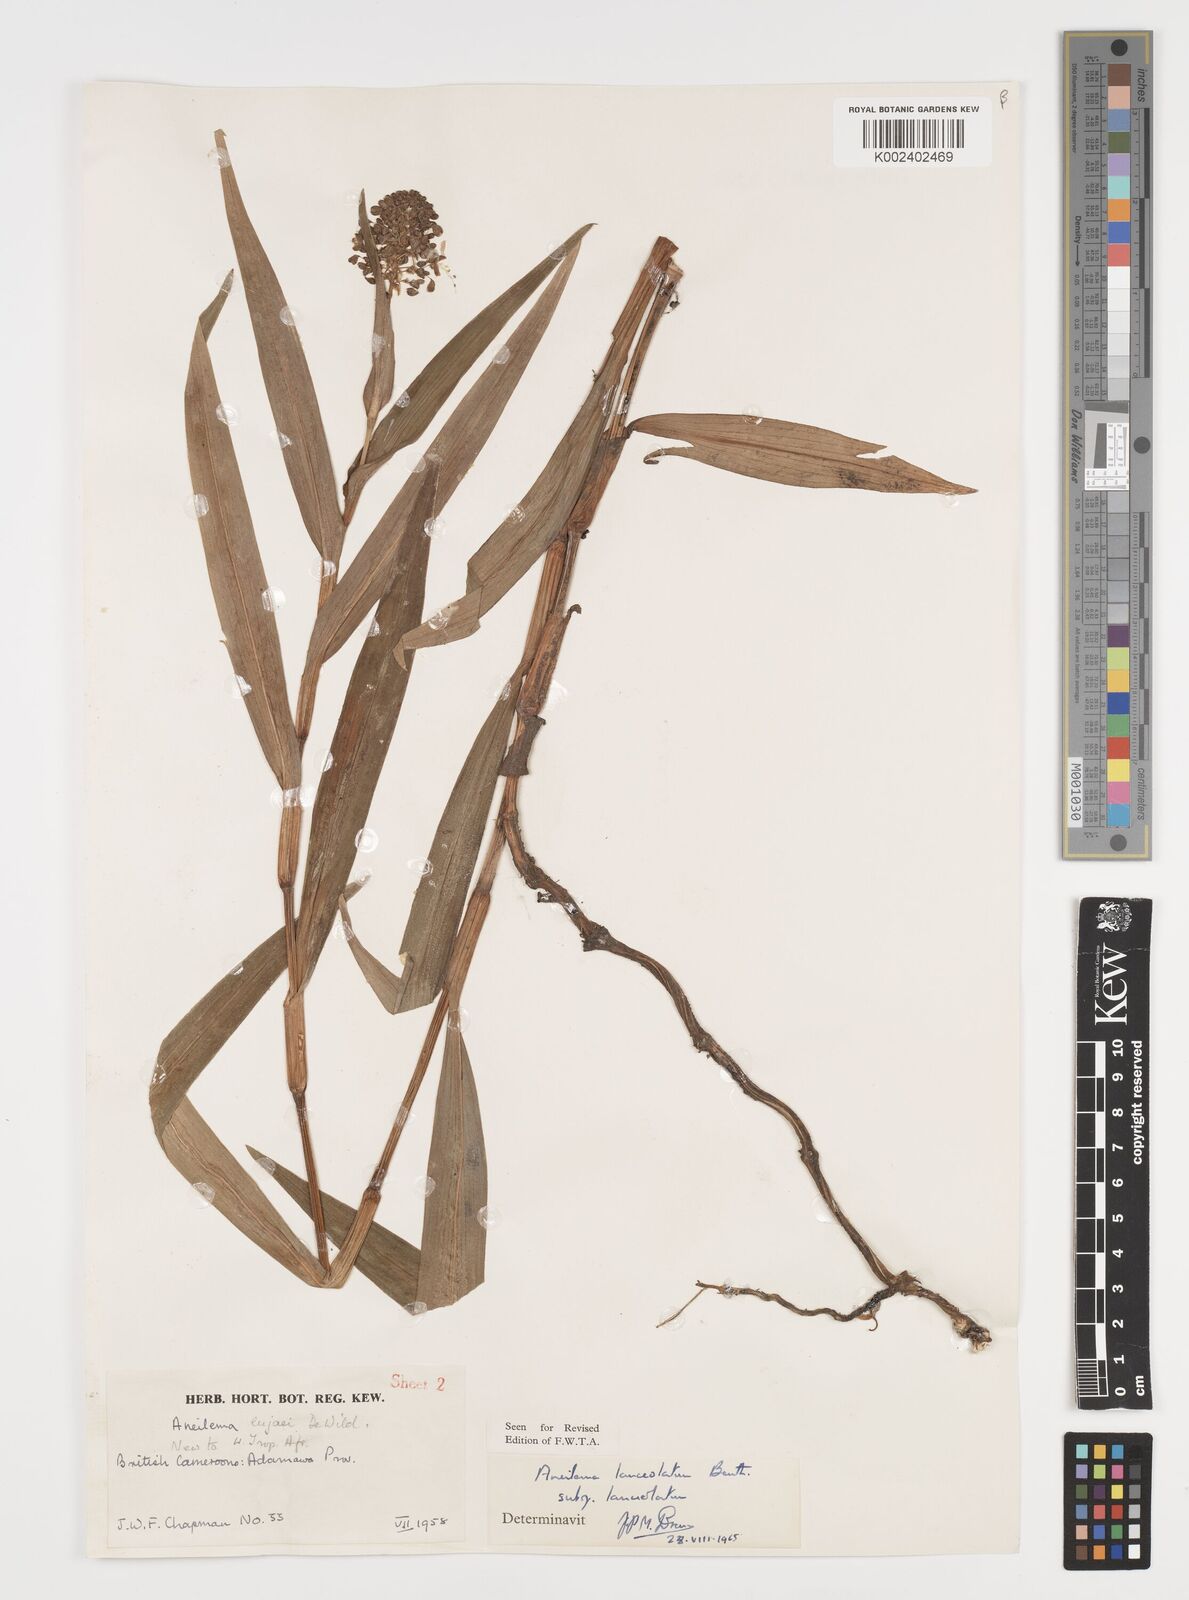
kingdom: Plantae
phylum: Tracheophyta
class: Liliopsida
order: Commelinales
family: Commelinaceae
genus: Murdannia
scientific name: Murdannia spirata
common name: Asiatic dewflower
